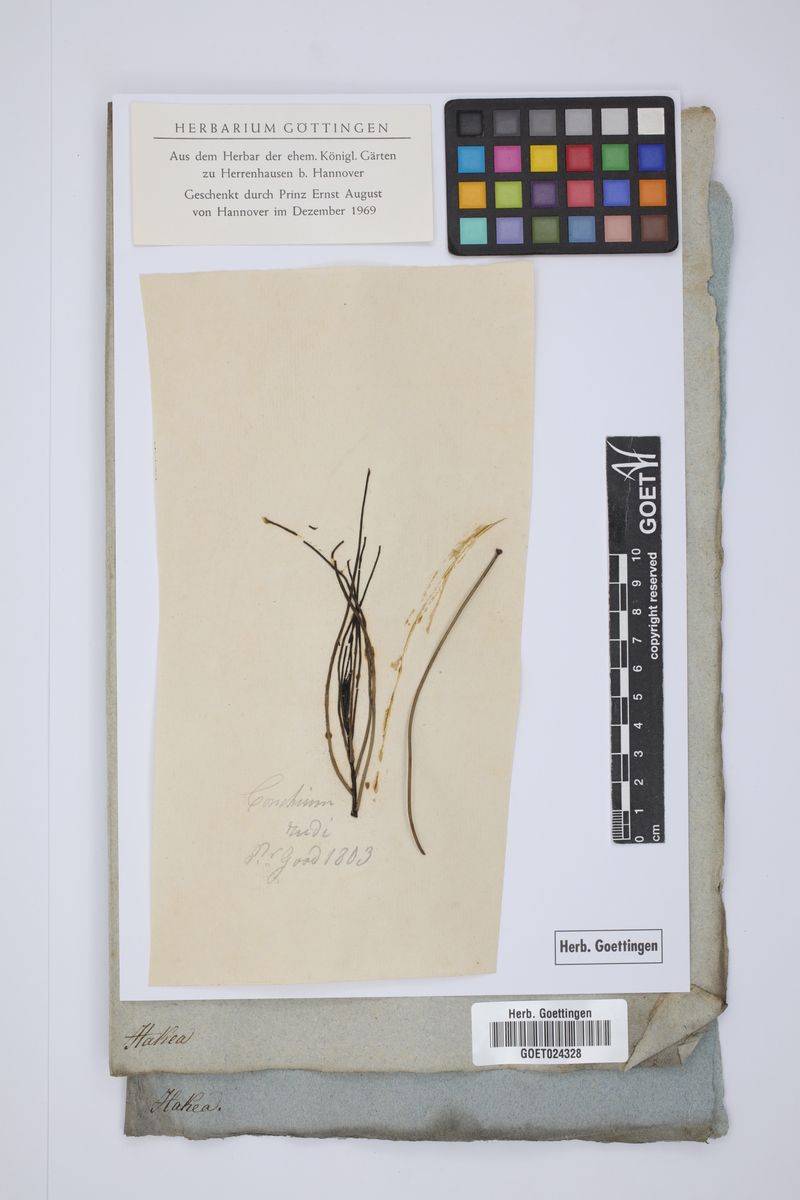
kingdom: Plantae
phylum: Tracheophyta
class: Magnoliopsida
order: Proteales
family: Proteaceae
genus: Hakea
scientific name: Hakea
